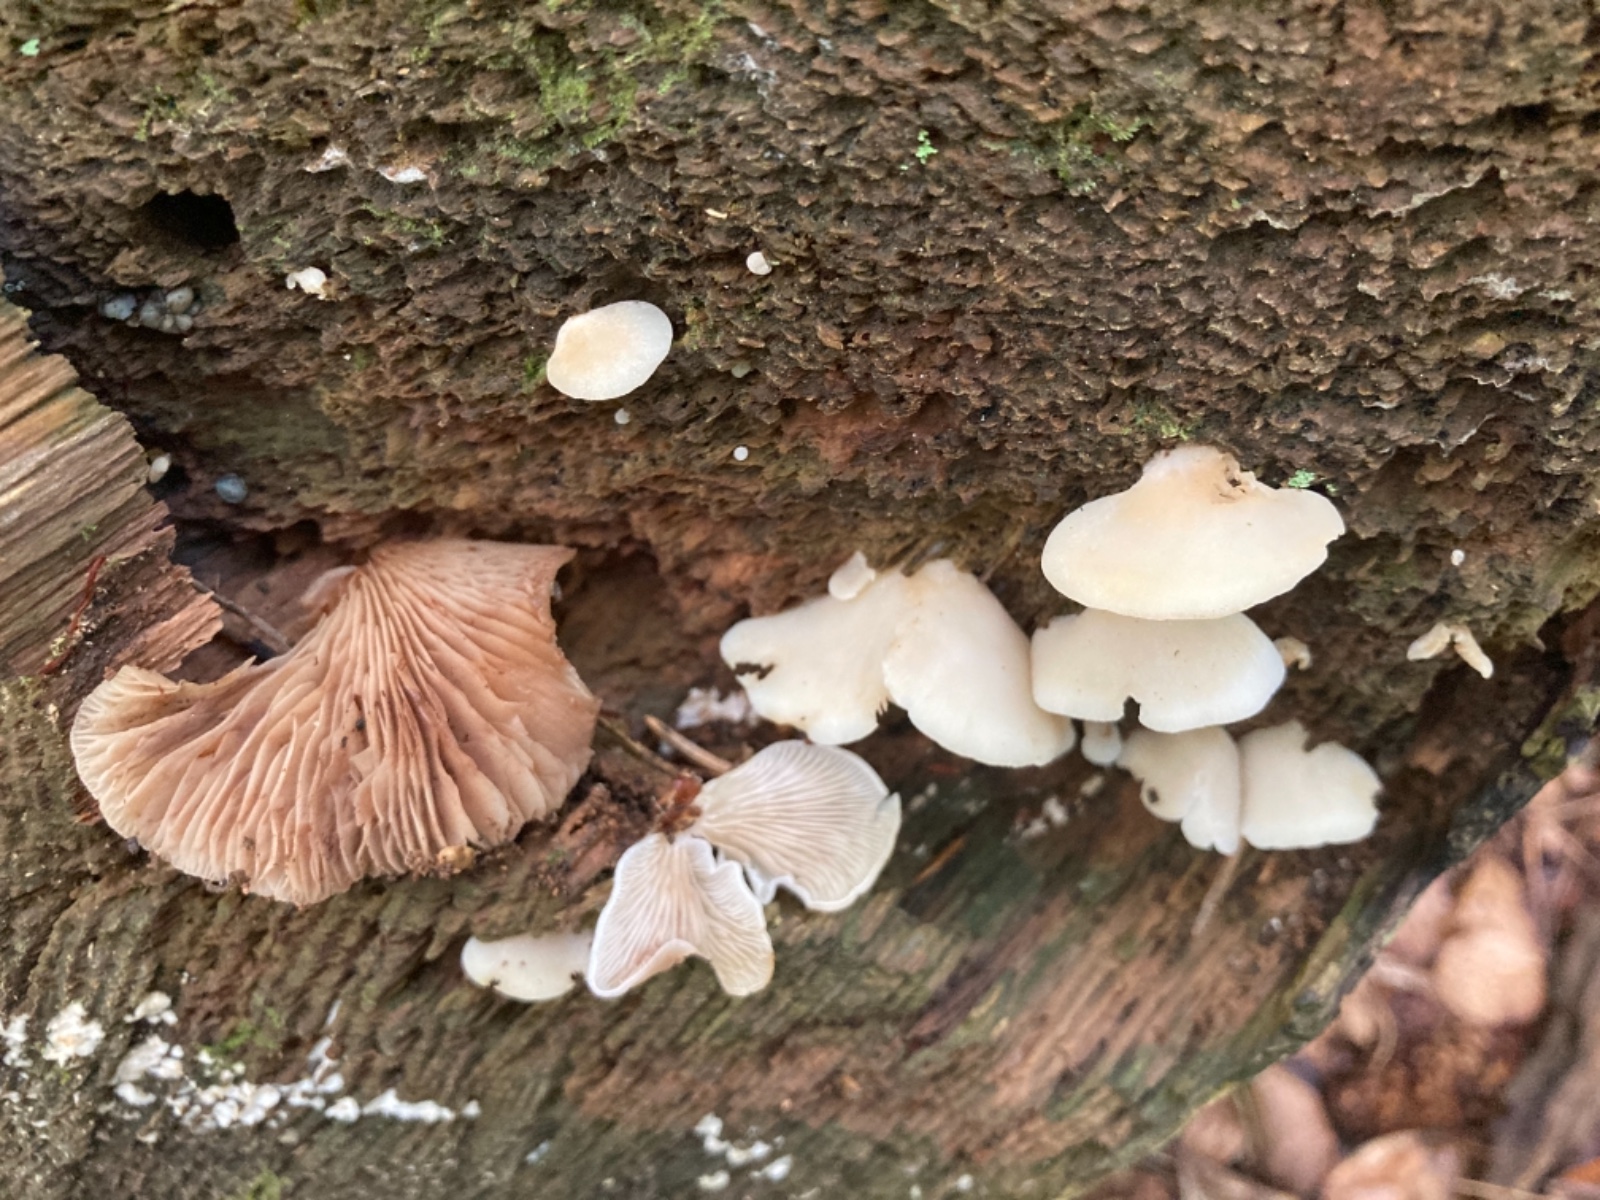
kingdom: Fungi
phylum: Basidiomycota
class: Agaricomycetes
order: Agaricales
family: Crepidotaceae
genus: Crepidotus
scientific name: Crepidotus stenocystis
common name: nåletræs-muslingesvamp
